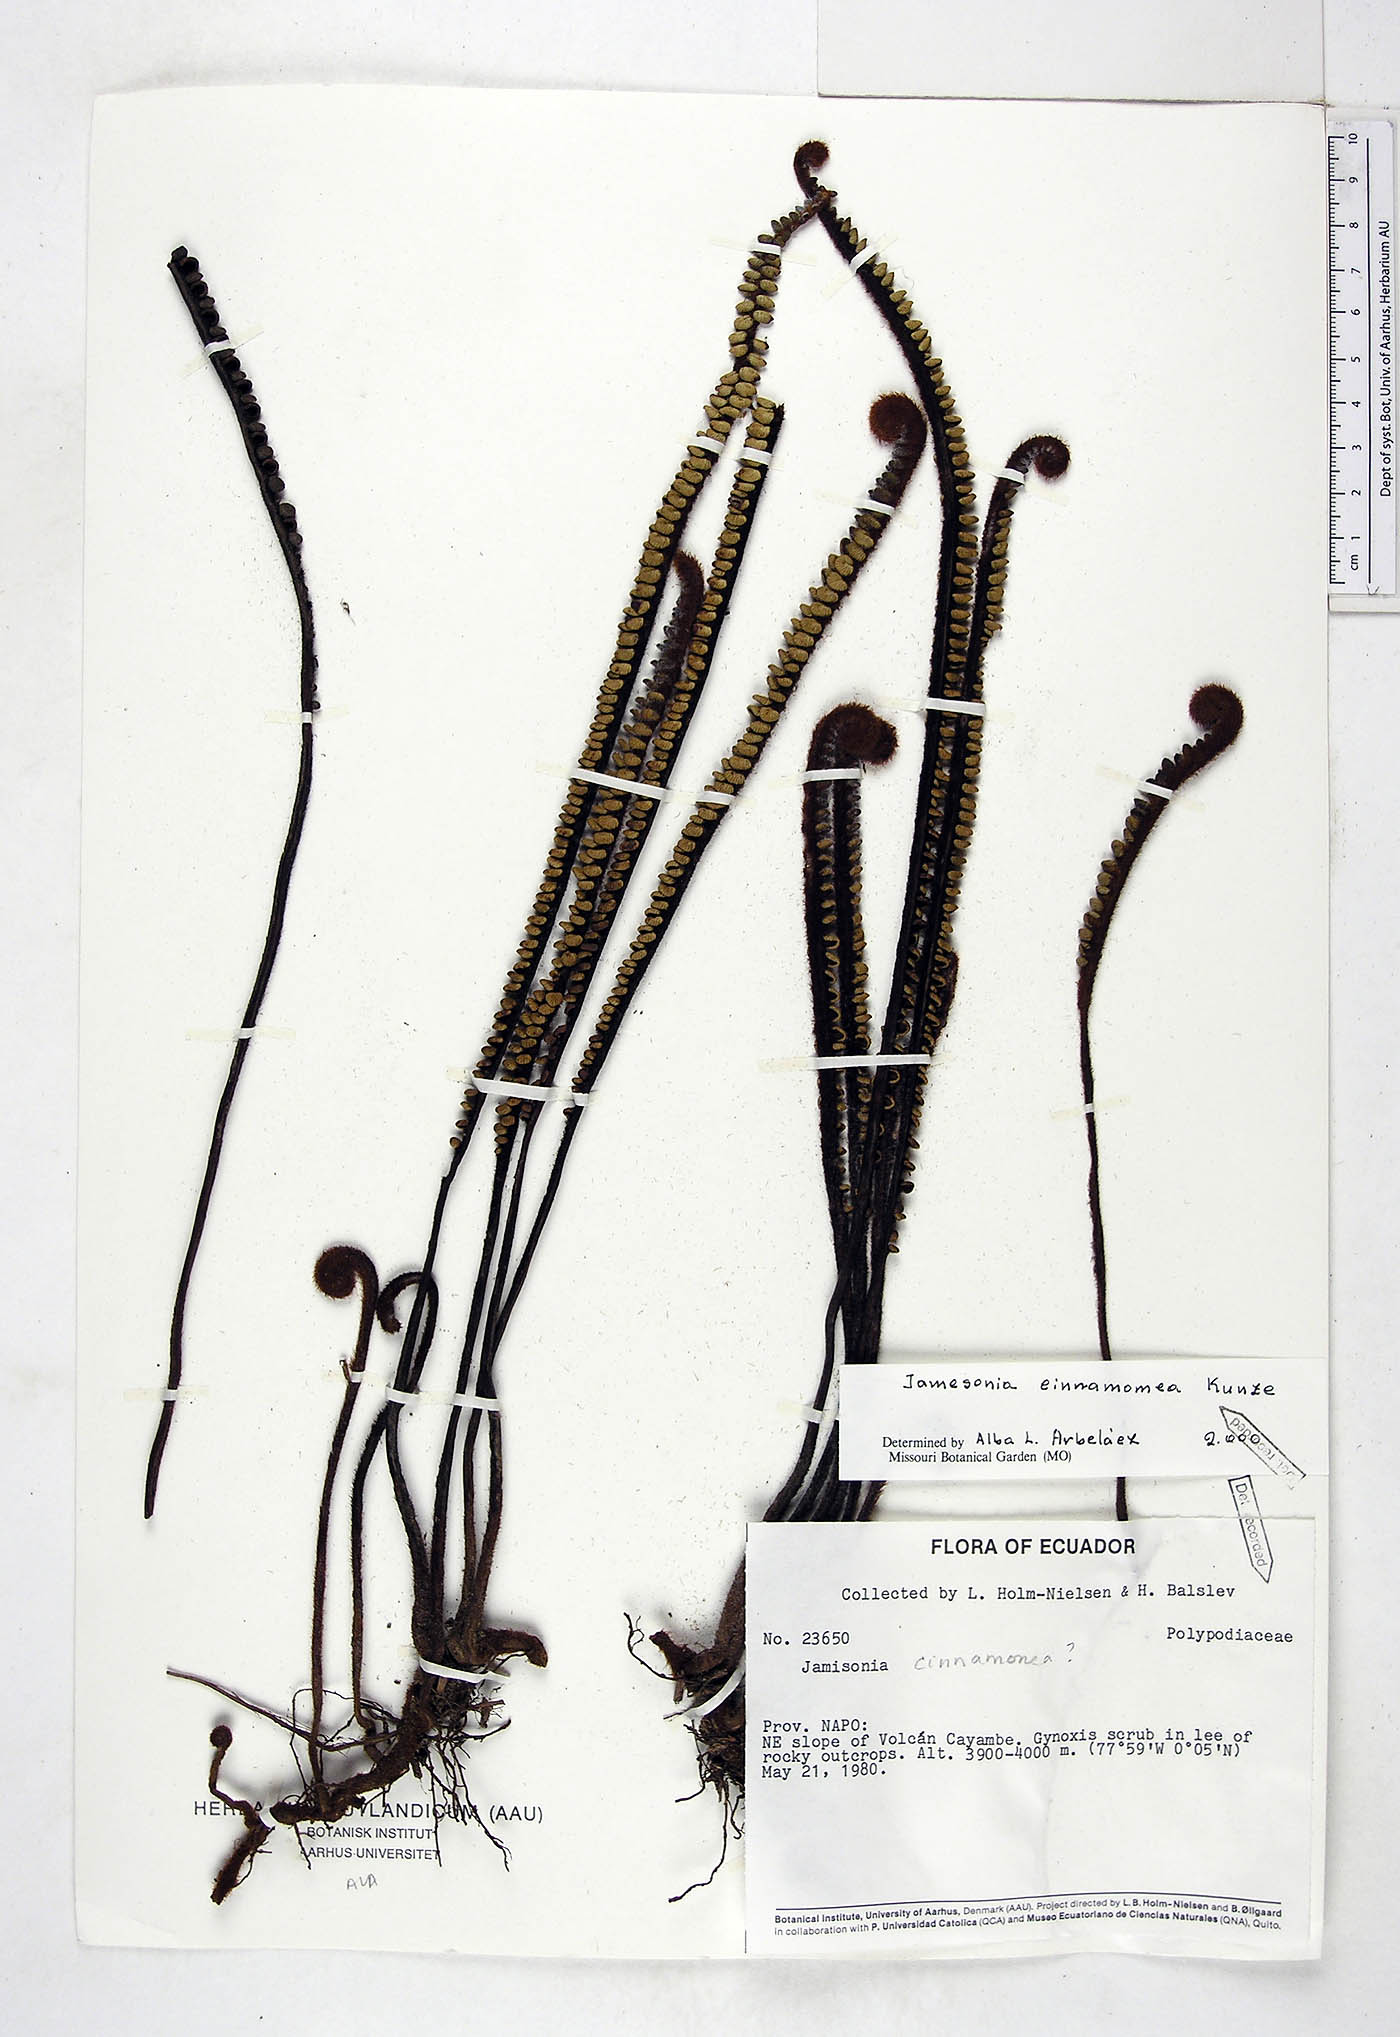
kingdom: Plantae
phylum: Tracheophyta
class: Polypodiopsida
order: Polypodiales
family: Pteridaceae
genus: Jamesonia
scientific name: Jamesonia cinnamomea
